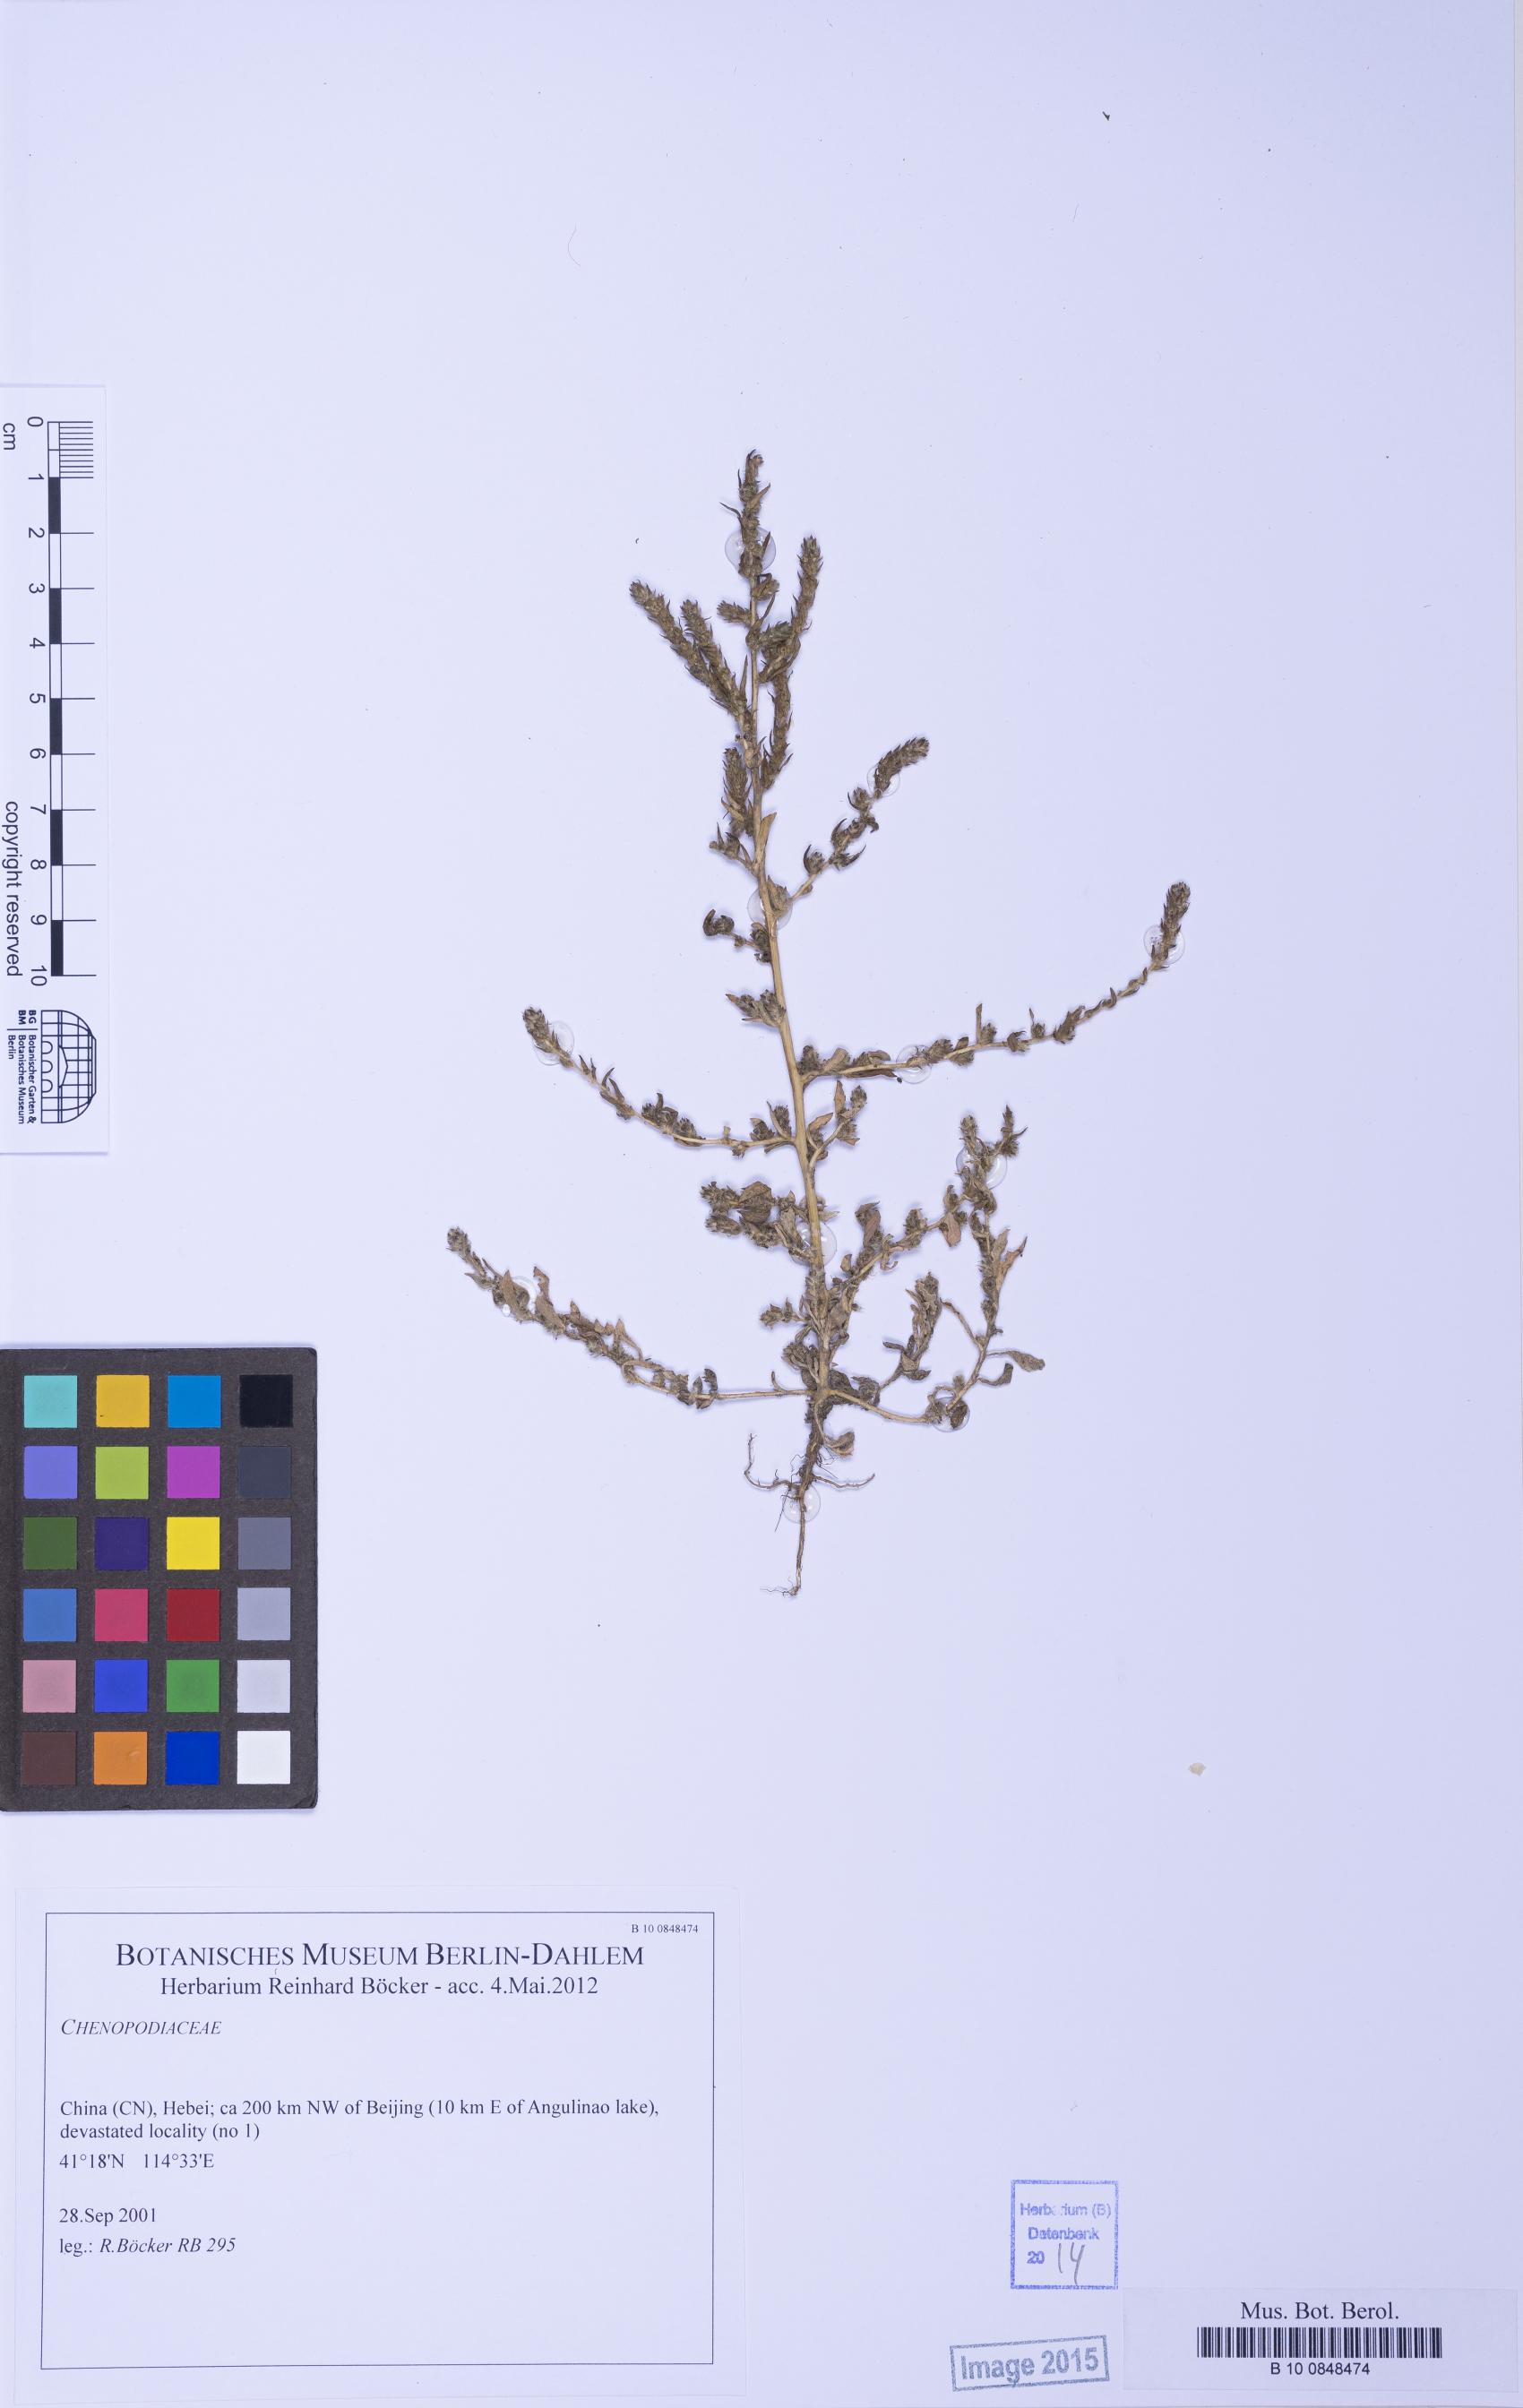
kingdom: Plantae
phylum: Tracheophyta
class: Magnoliopsida
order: Caryophyllales
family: Amaranthaceae
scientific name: Amaranthaceae
